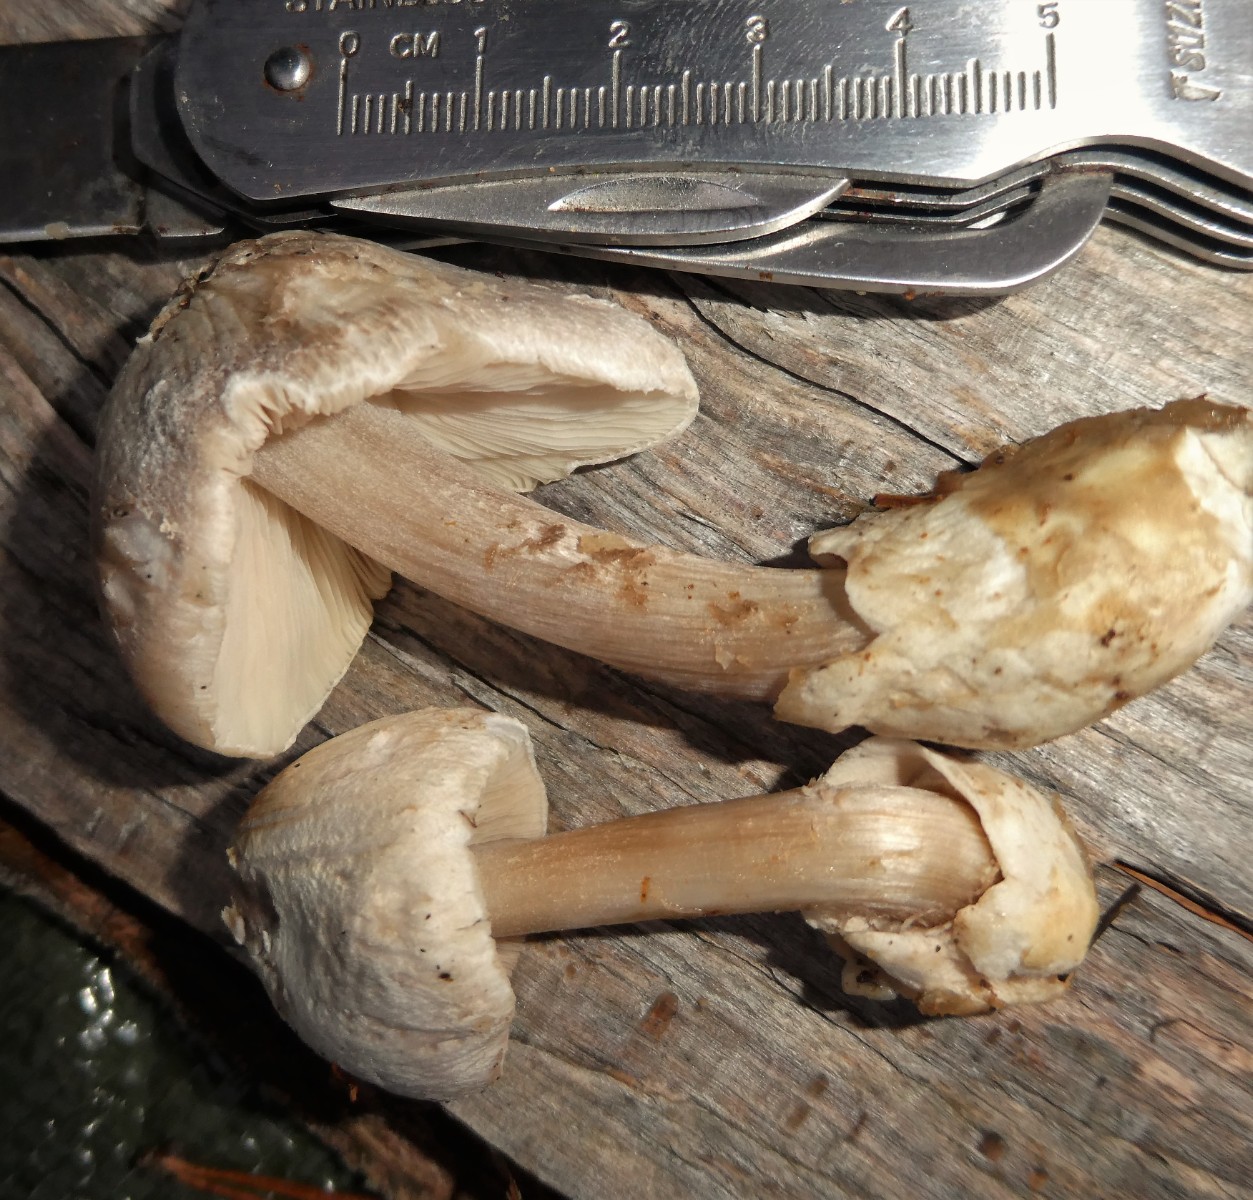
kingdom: Fungi
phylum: Basidiomycota
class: Agaricomycetes
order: Agaricales
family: Pluteaceae
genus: Volvariella
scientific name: Volvariella surrecta
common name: snyltende posesvamp
